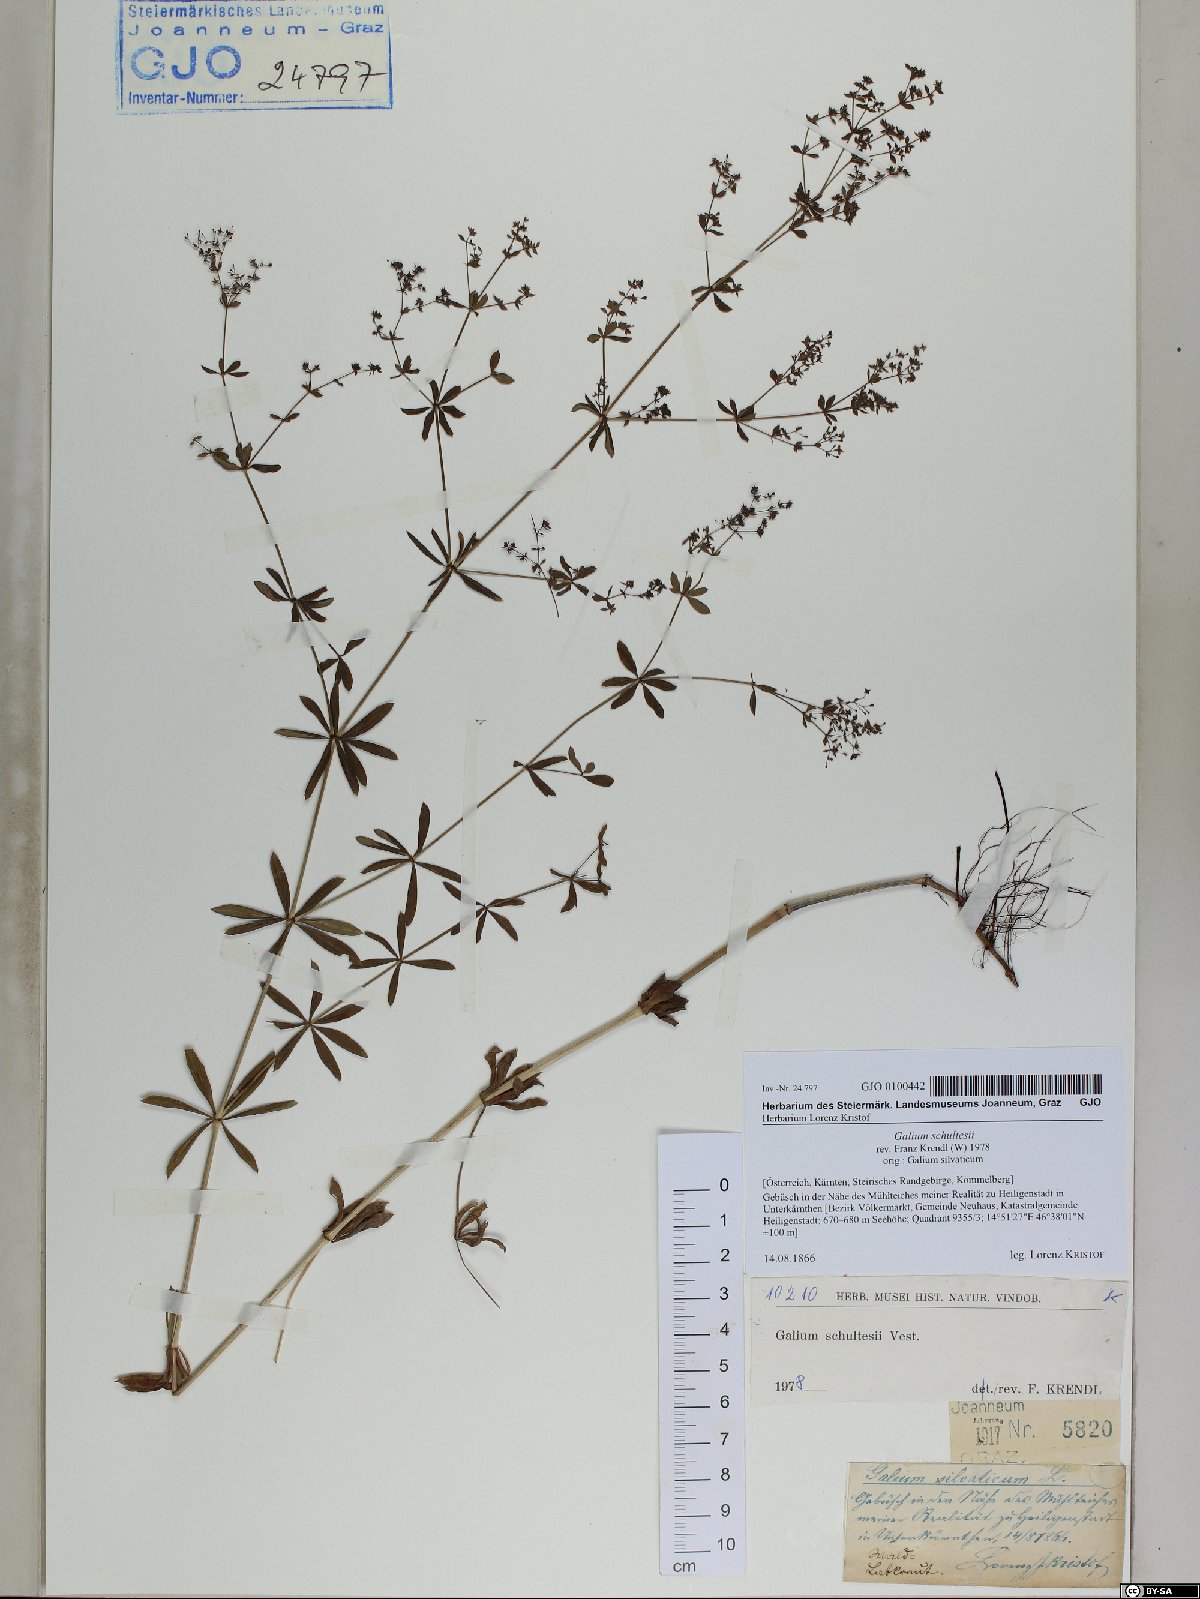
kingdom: Plantae
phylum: Tracheophyta
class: Magnoliopsida
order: Gentianales
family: Rubiaceae
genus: Galium
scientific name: Galium intermedium
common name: Bedstraw
